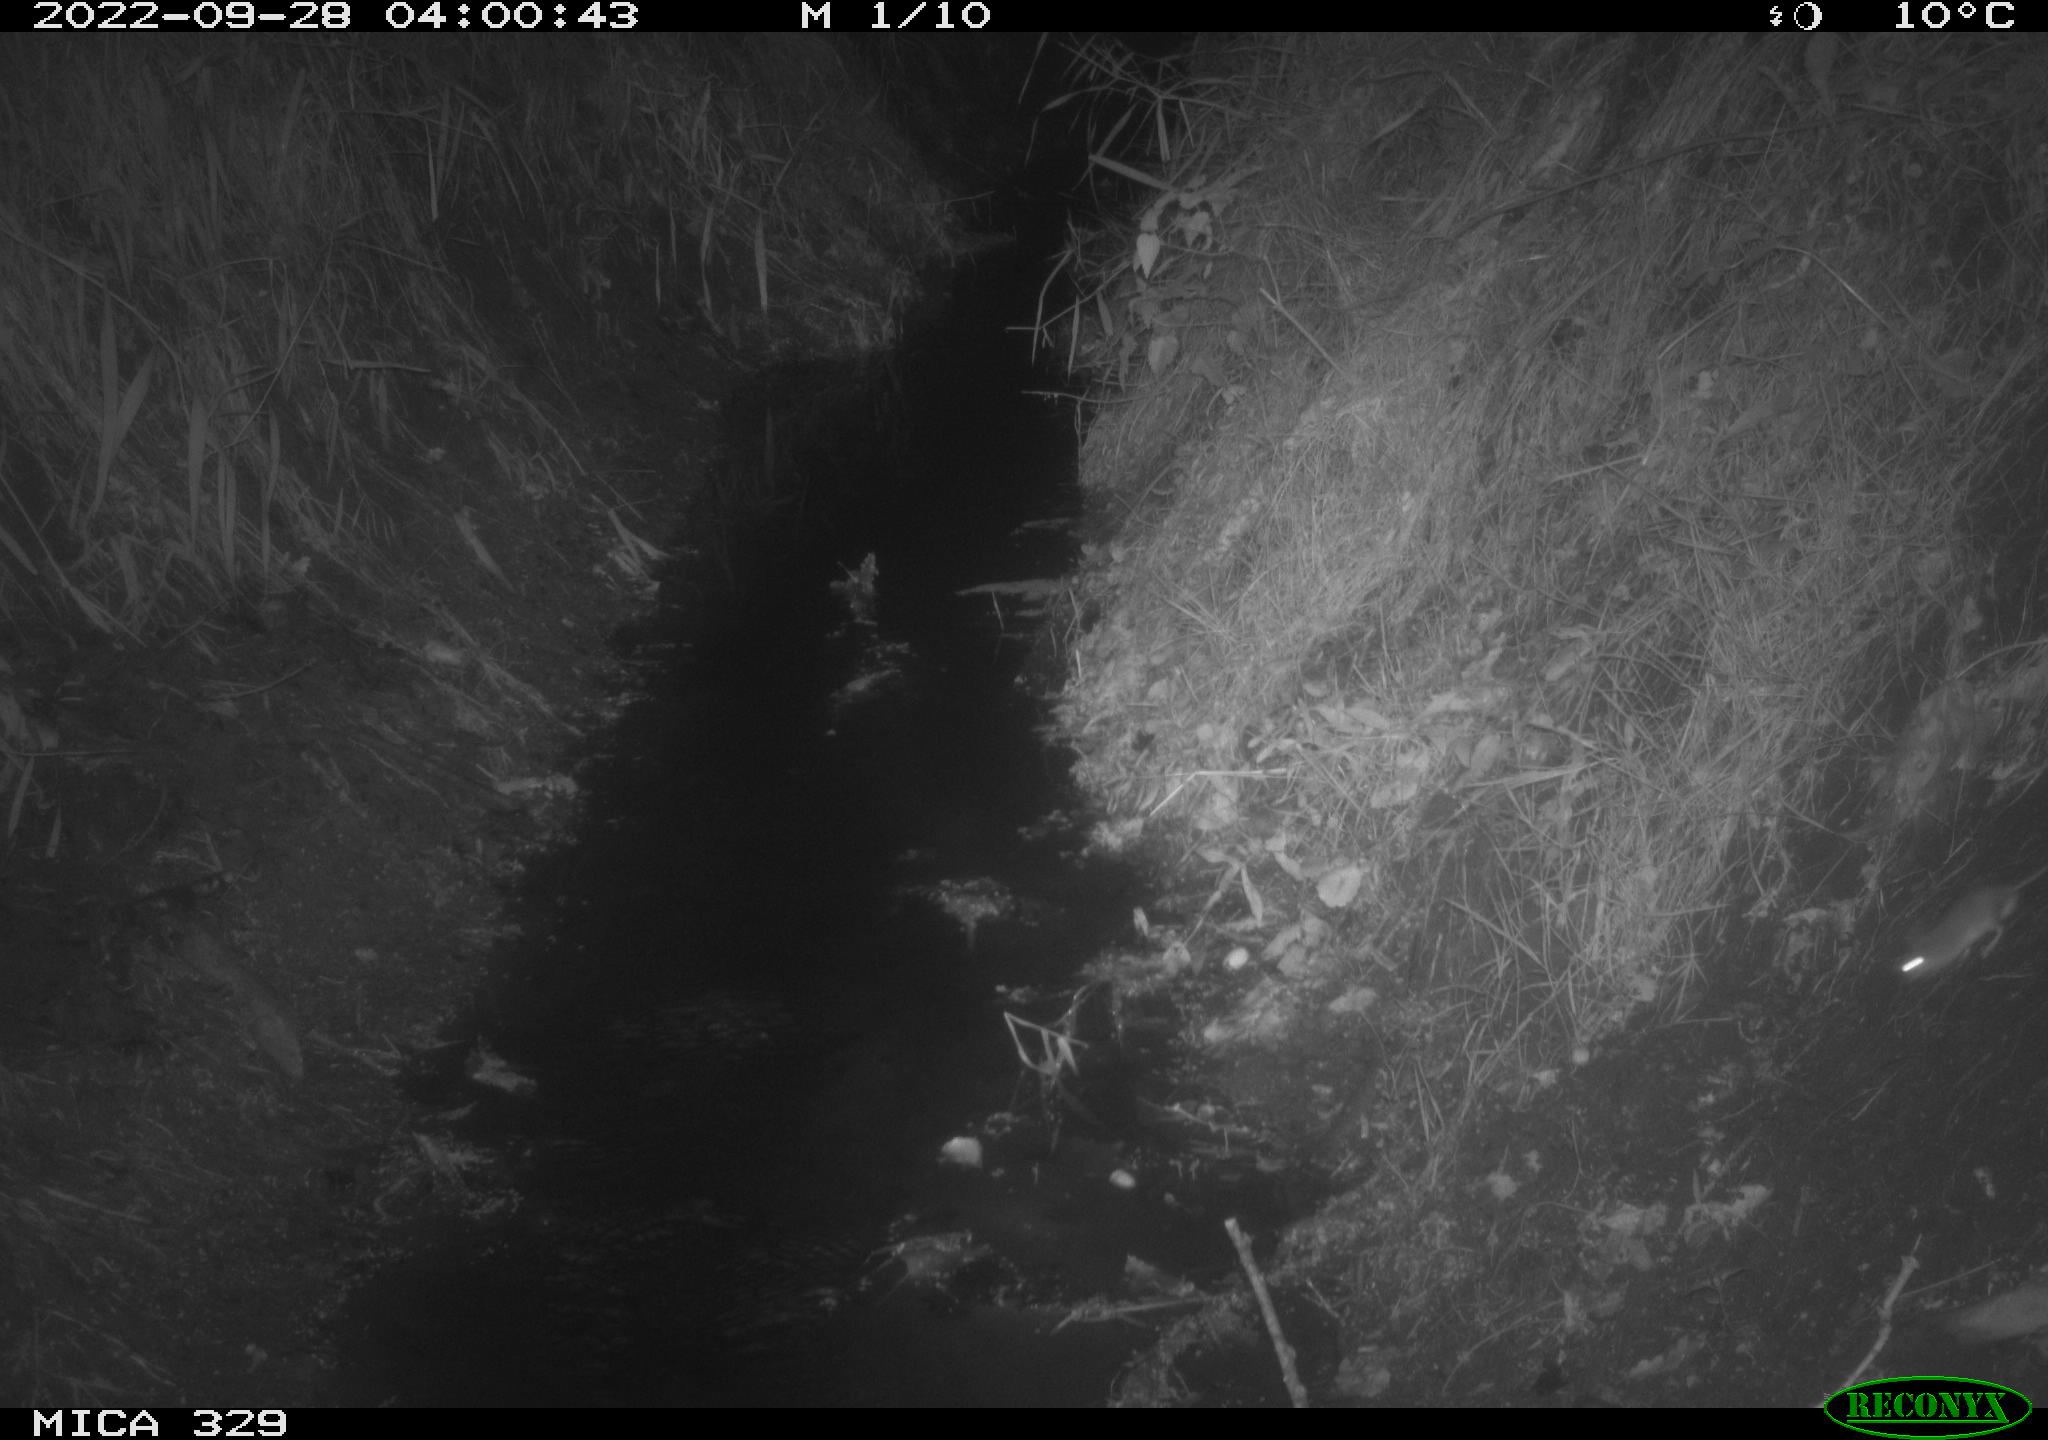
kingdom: Animalia
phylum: Chordata
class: Mammalia
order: Rodentia
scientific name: Rodentia
